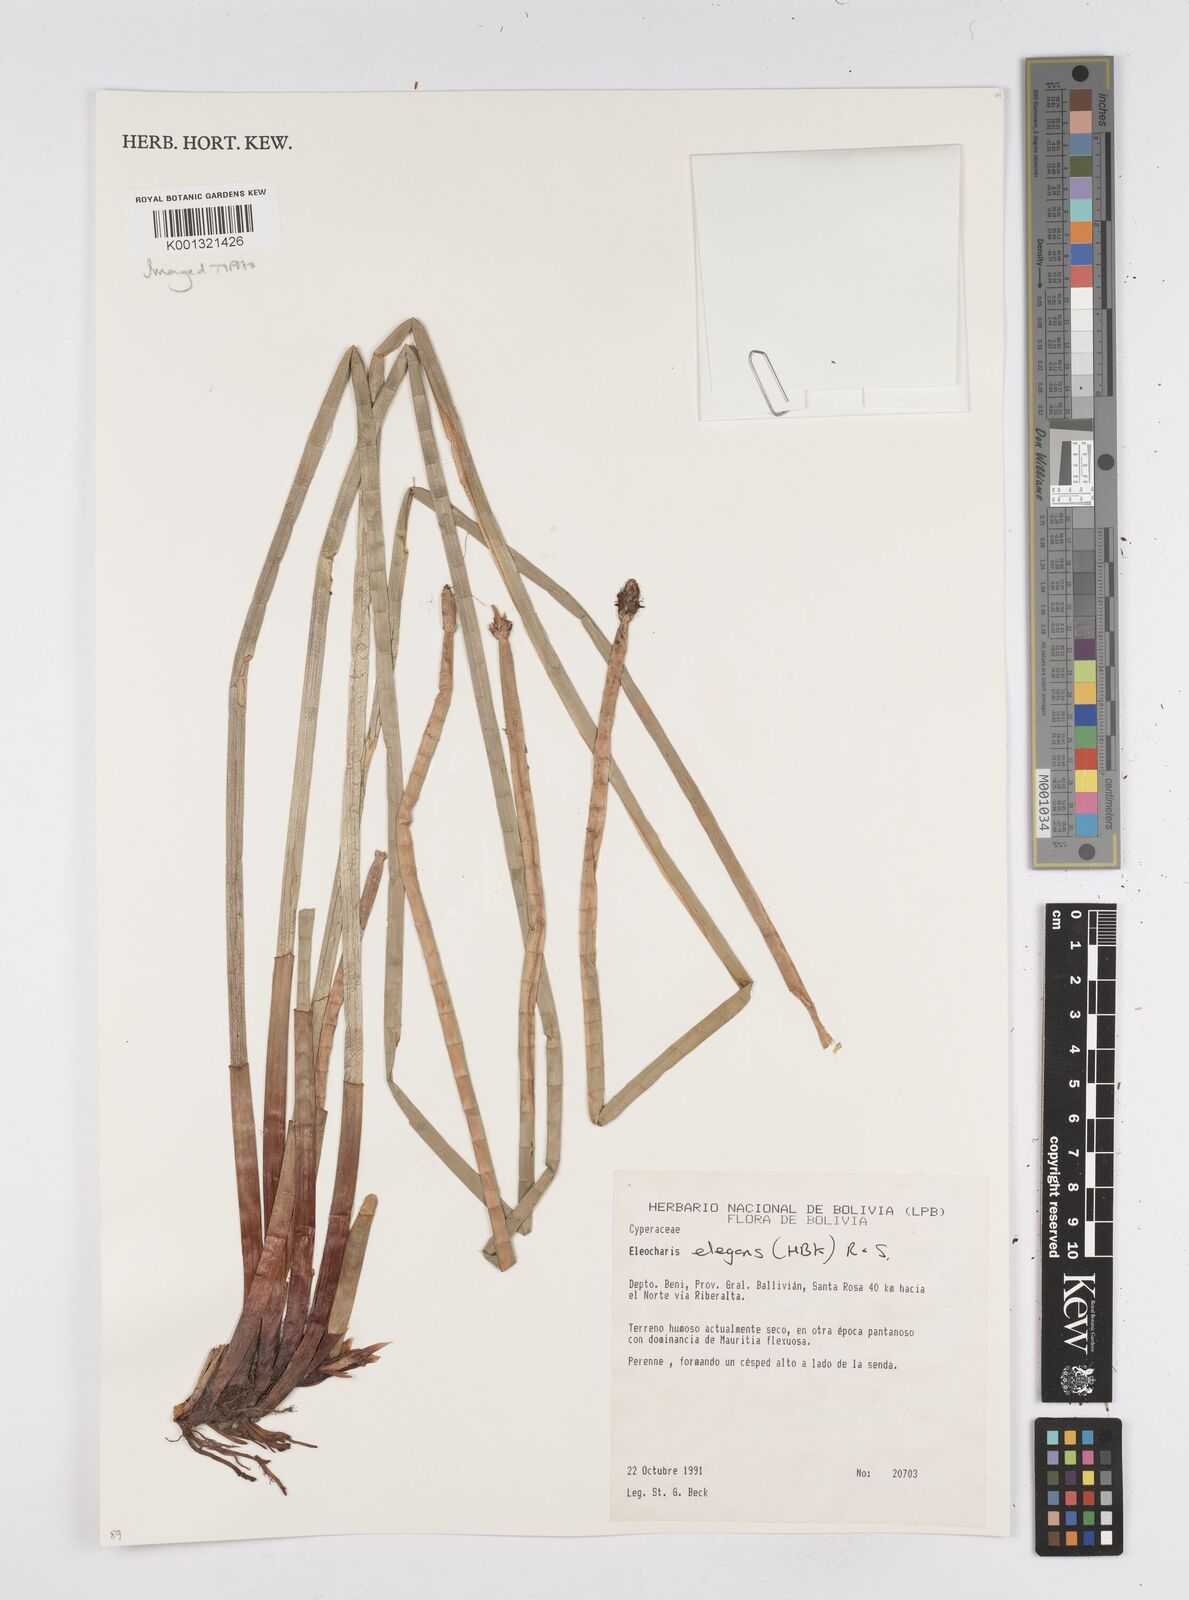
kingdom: Plantae
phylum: Tracheophyta
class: Liliopsida
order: Poales
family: Cyperaceae
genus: Eleocharis
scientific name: Eleocharis elegans
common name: Elegant spike-rush
